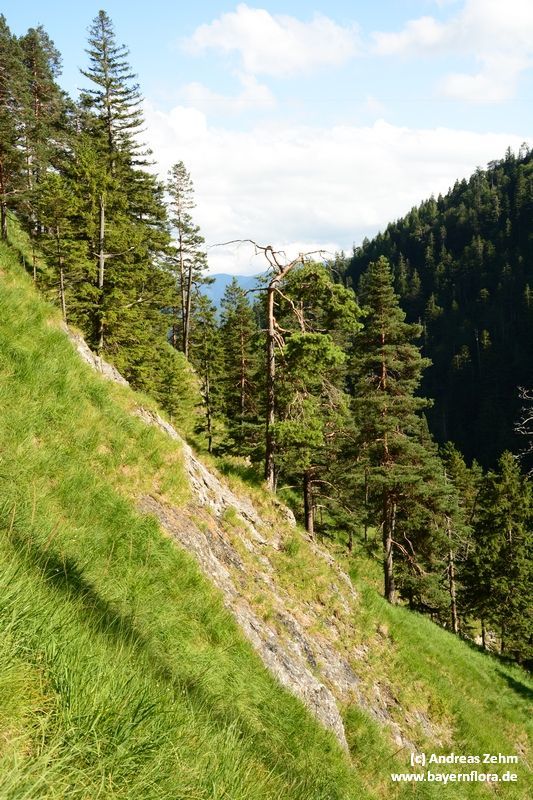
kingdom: Plantae
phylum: Tracheophyta
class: Liliopsida
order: Asparagales
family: Iridaceae
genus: Gladiolus
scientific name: Gladiolus palustris
